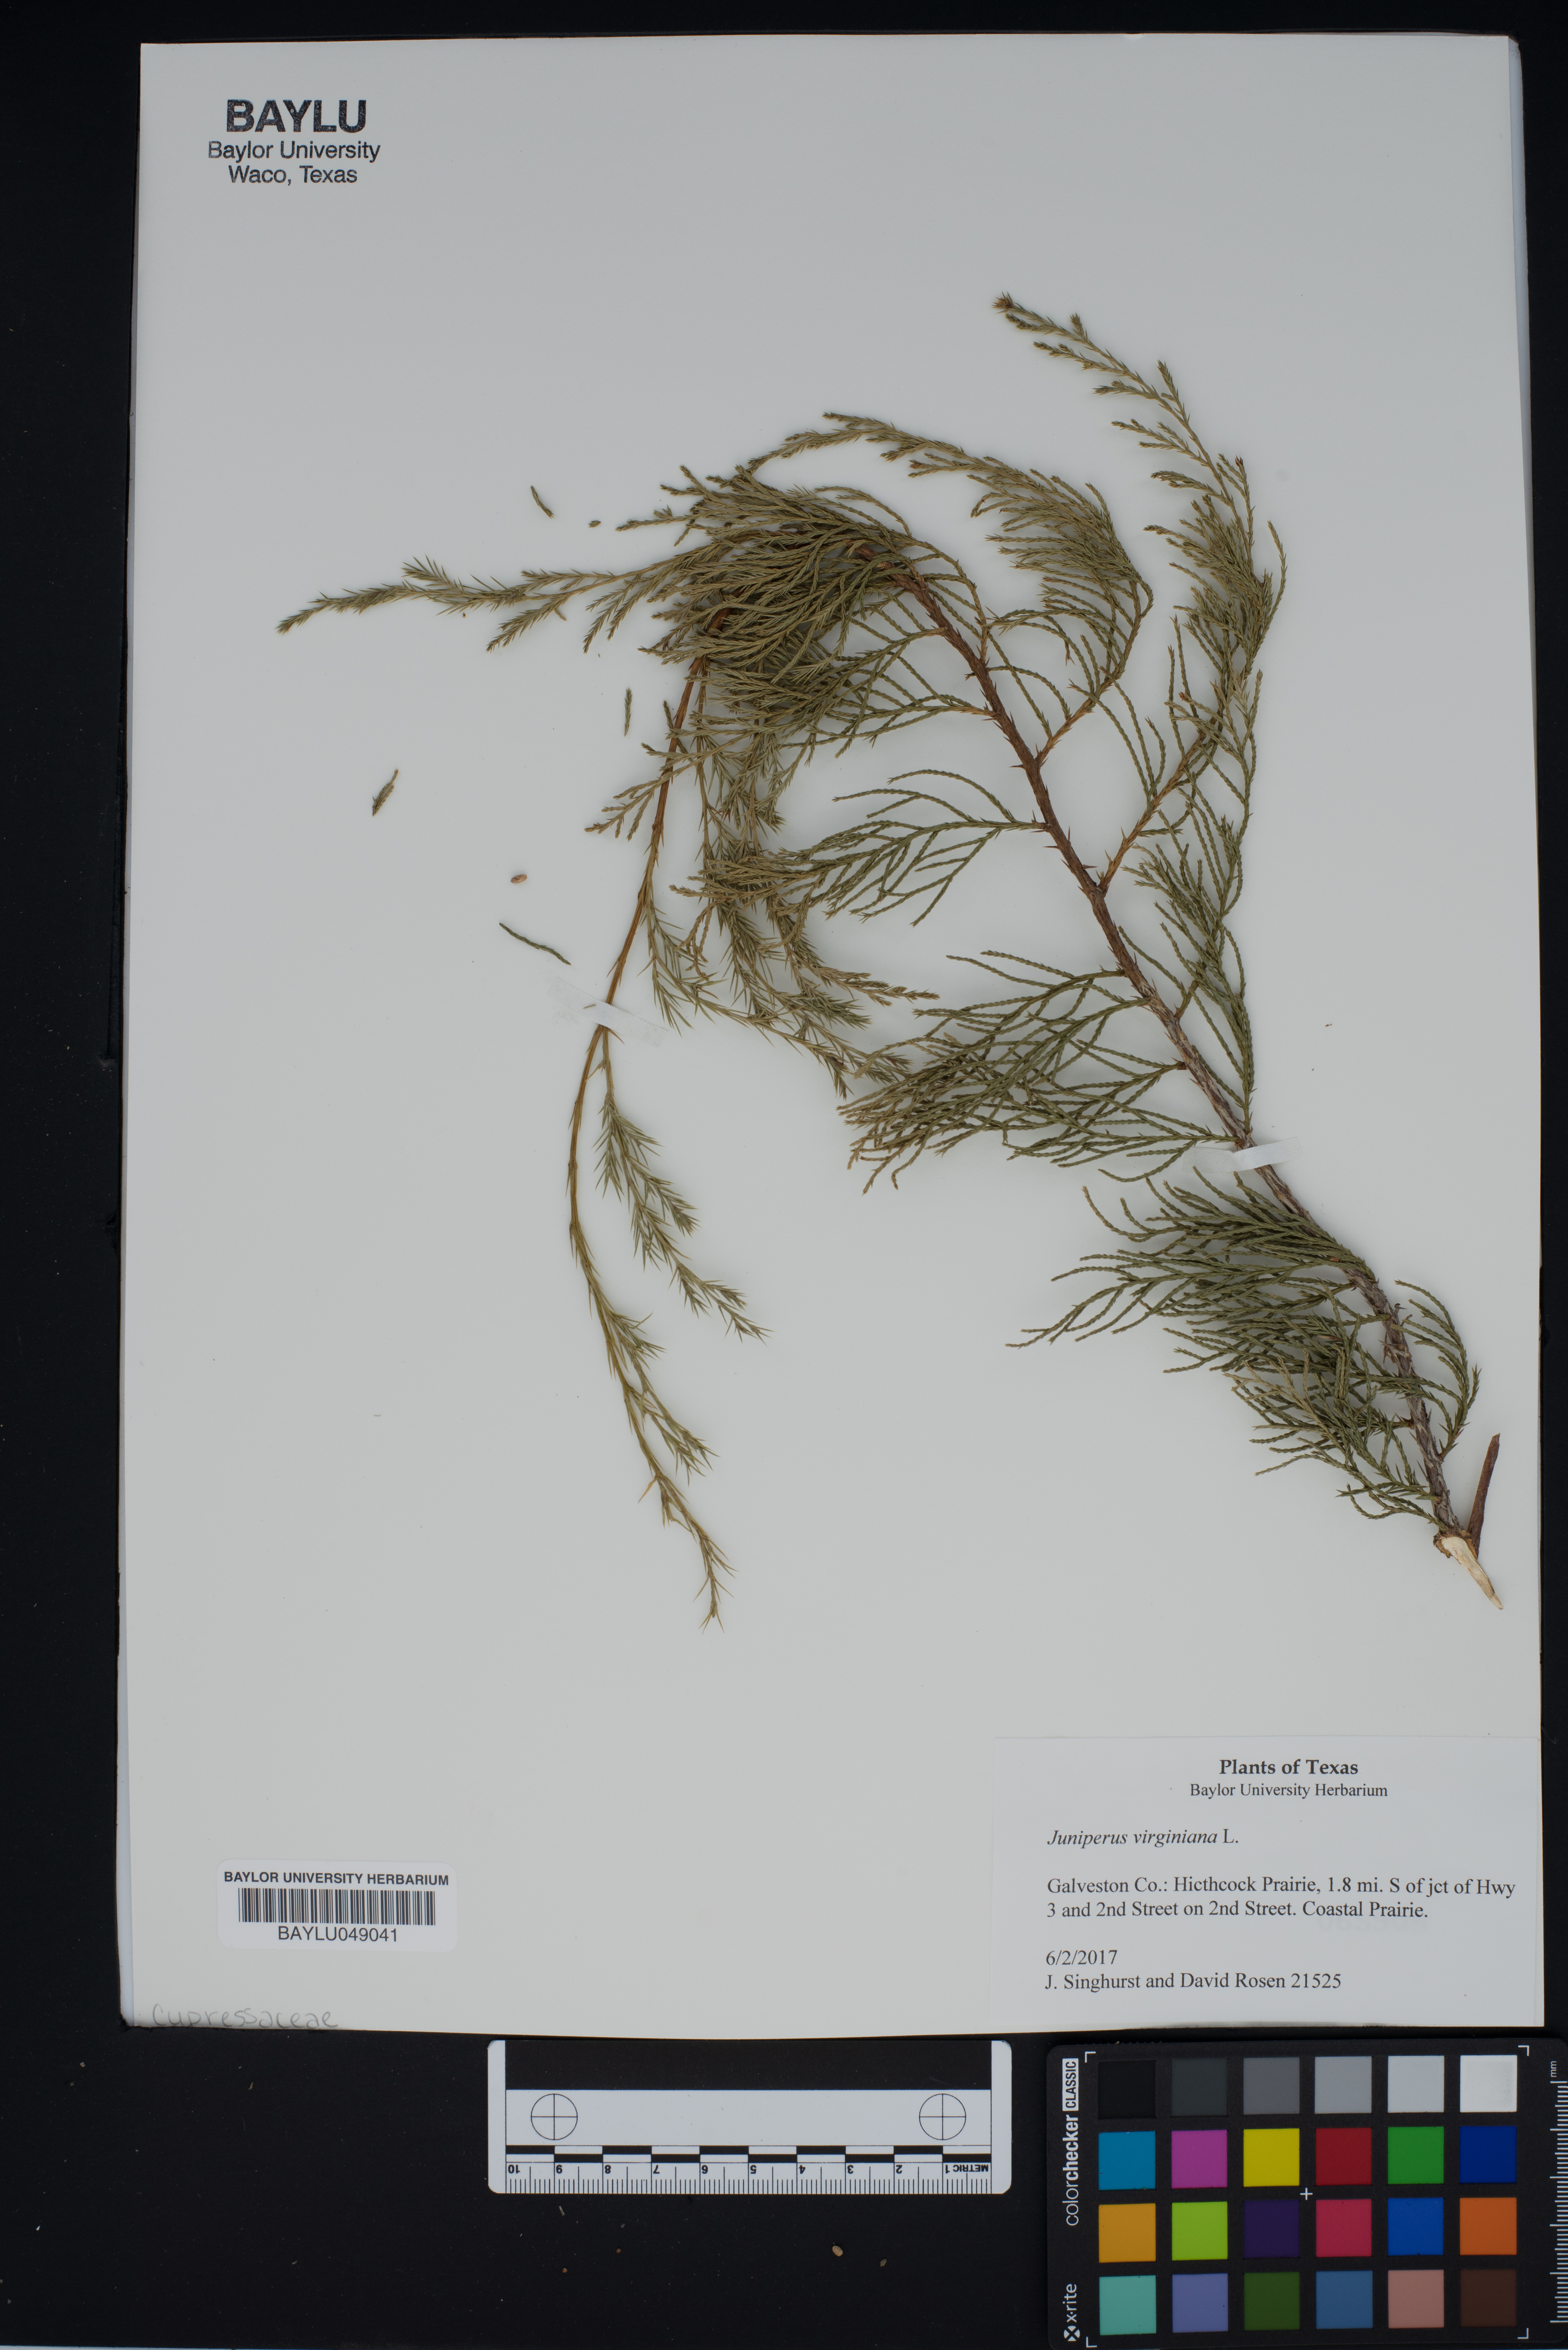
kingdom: Plantae
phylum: Tracheophyta
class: Pinopsida
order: Pinales
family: Cupressaceae
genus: Juniperus
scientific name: Juniperus virginiana
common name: Red juniper
